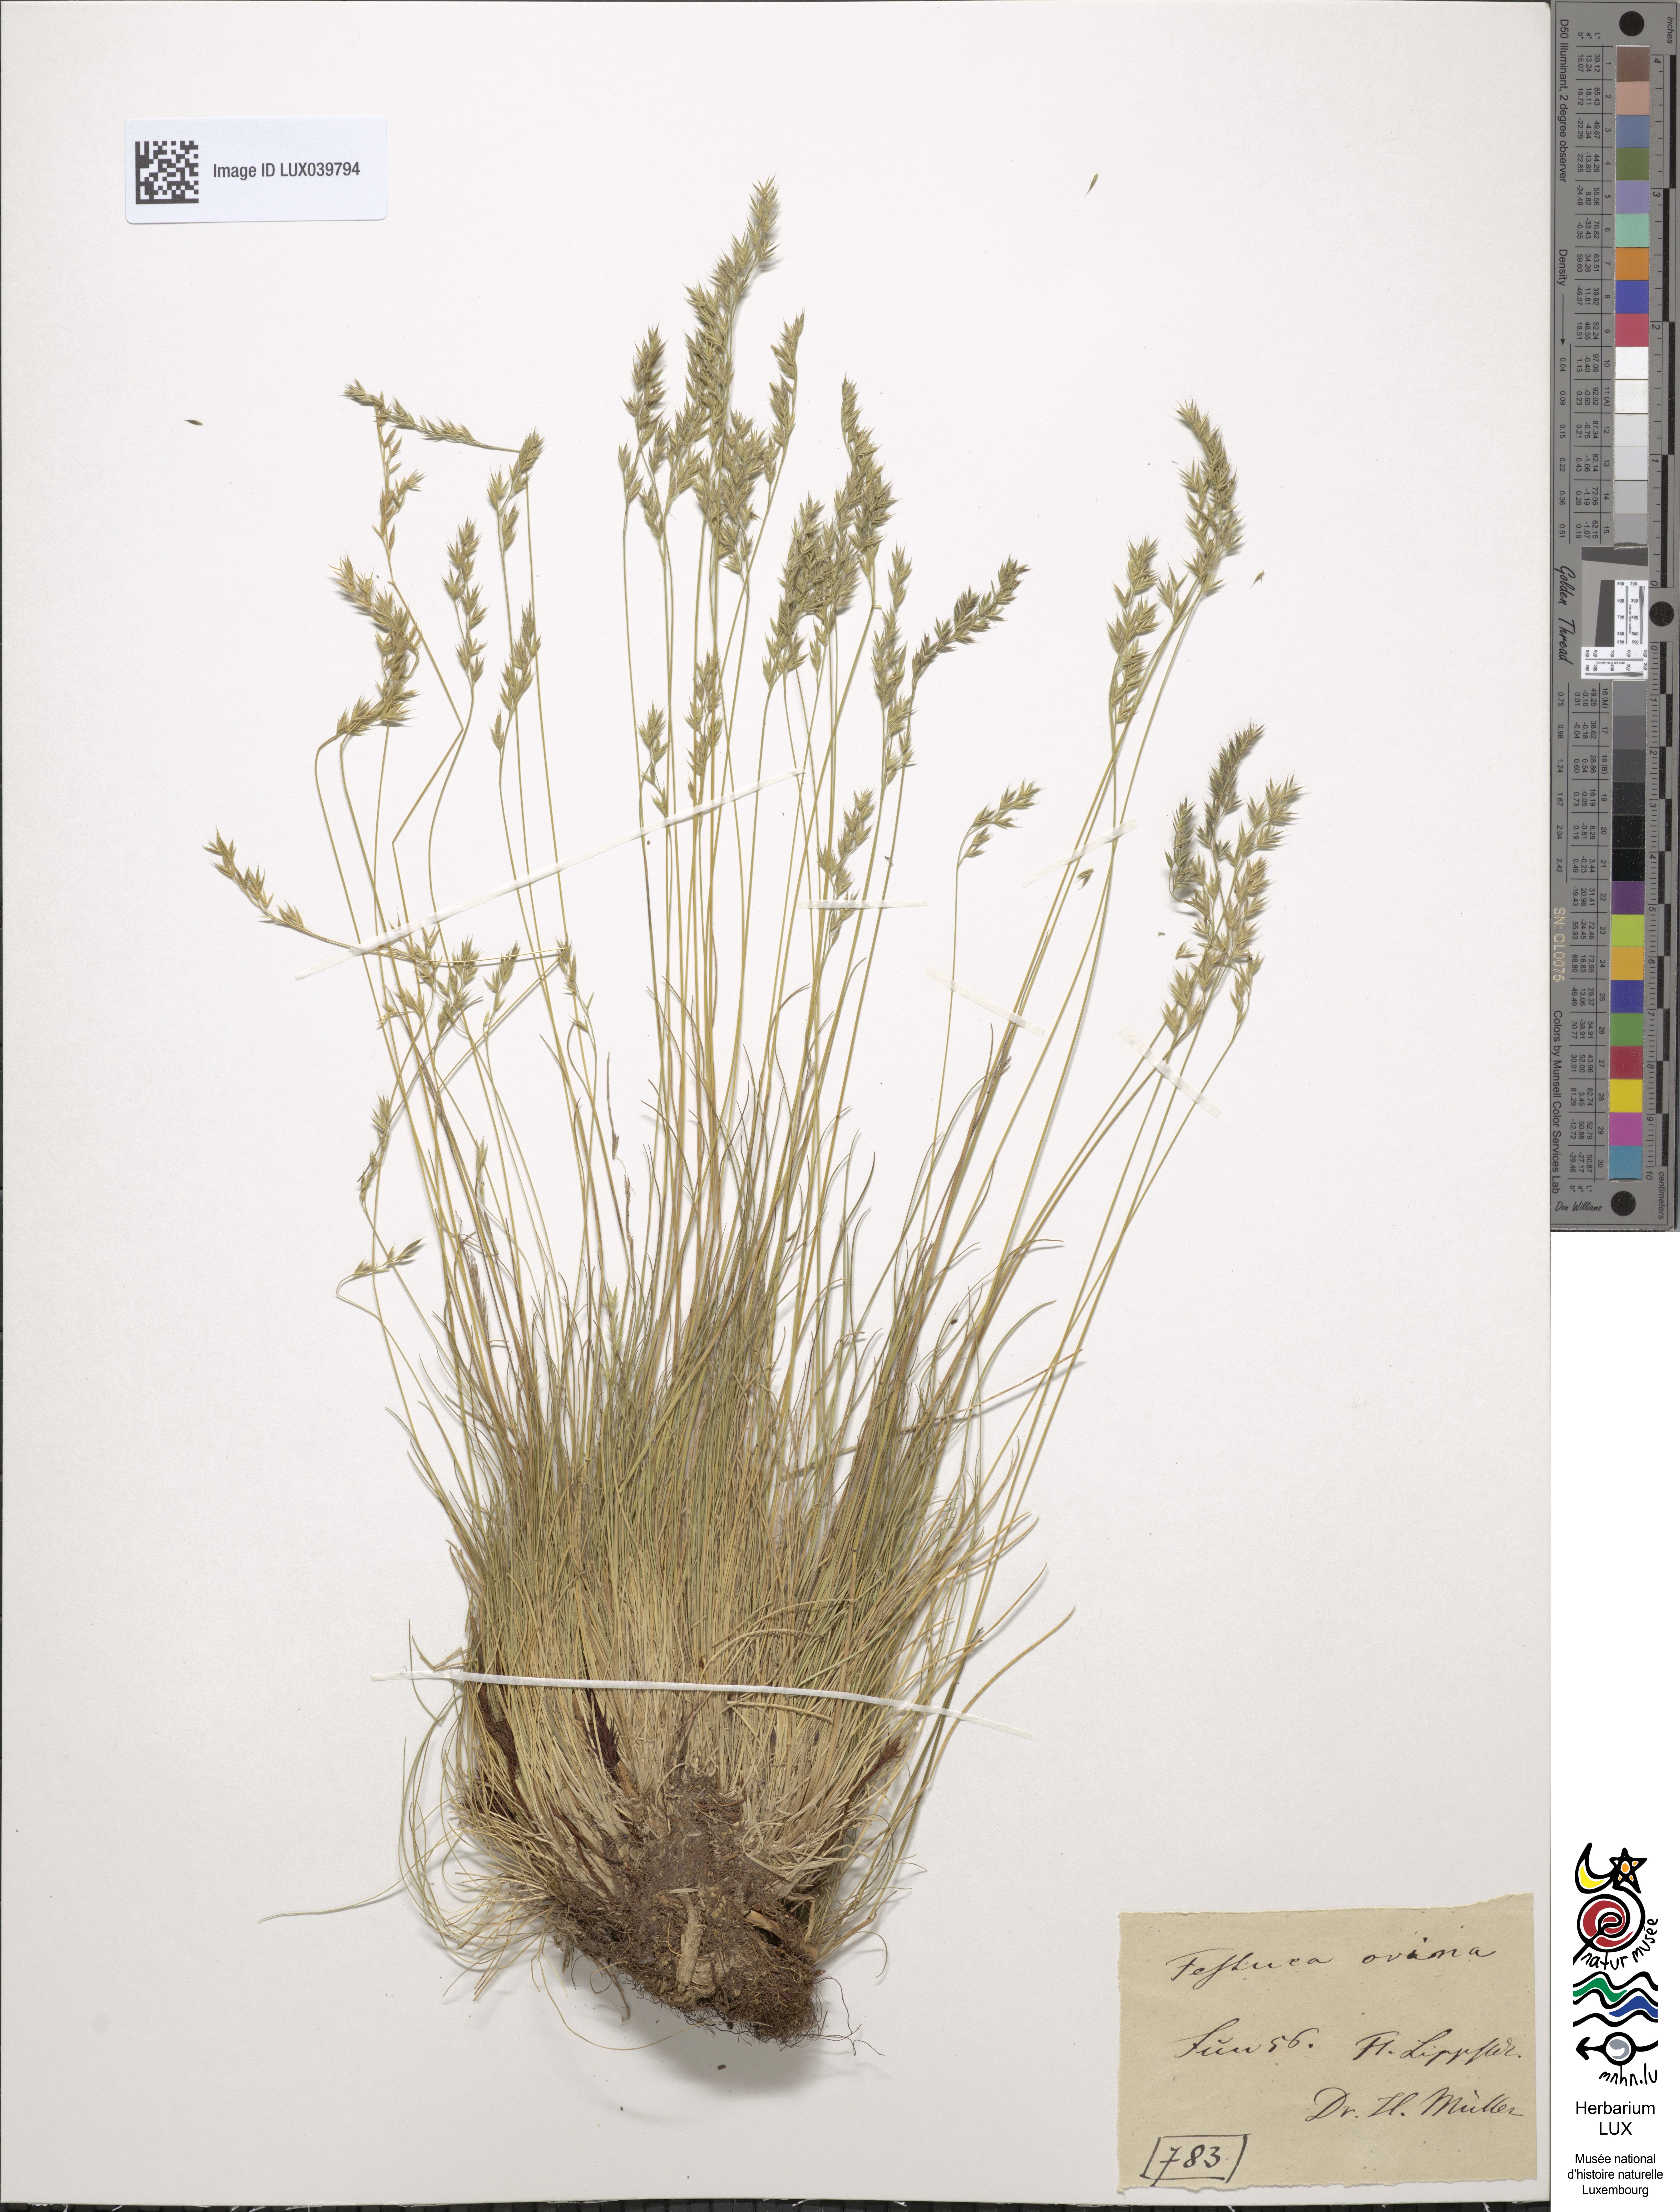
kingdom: Plantae
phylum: Tracheophyta
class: Liliopsida
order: Poales
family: Poaceae
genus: Festuca
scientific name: Festuca ovina
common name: Sheep fescue
